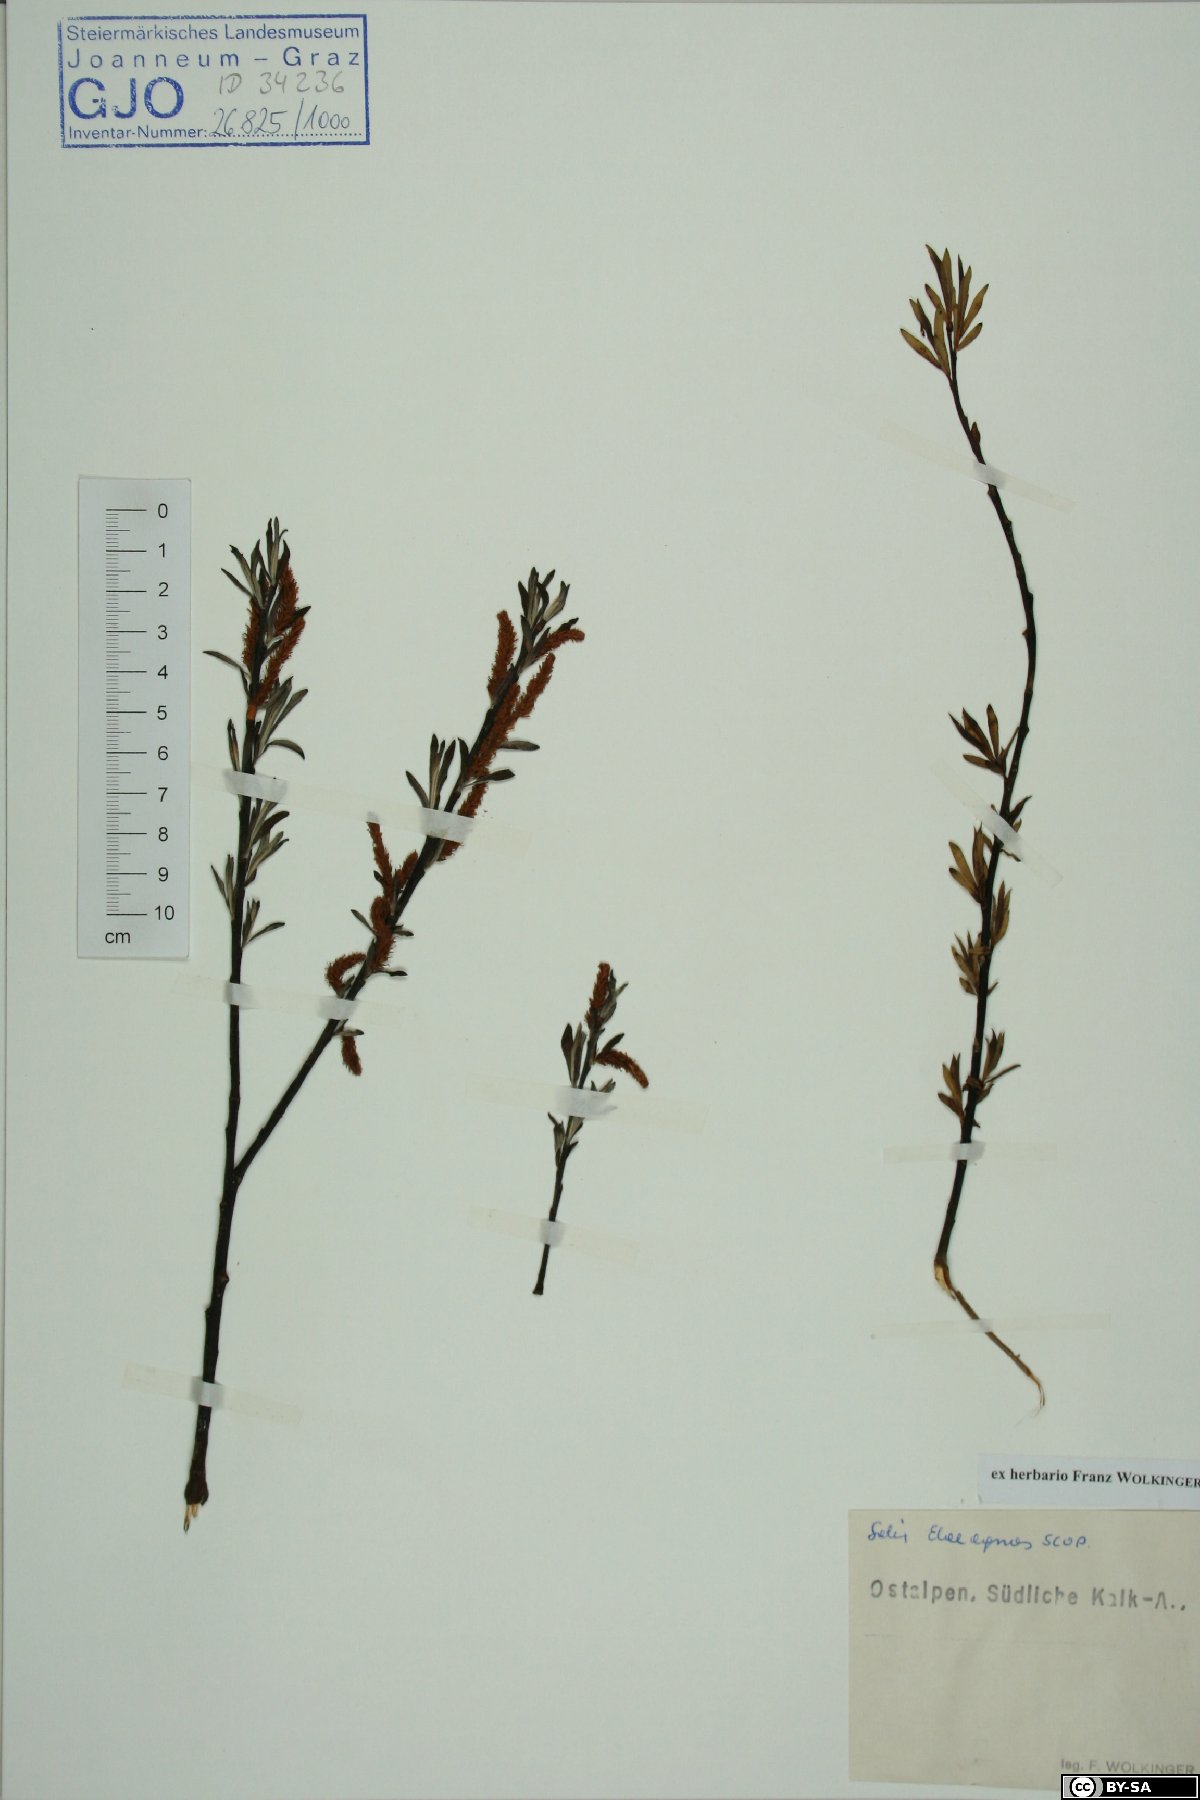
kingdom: Plantae
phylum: Tracheophyta
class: Magnoliopsida
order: Malpighiales
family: Salicaceae
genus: Salix
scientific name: Salix eleagnos
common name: Elaeagnus willow
